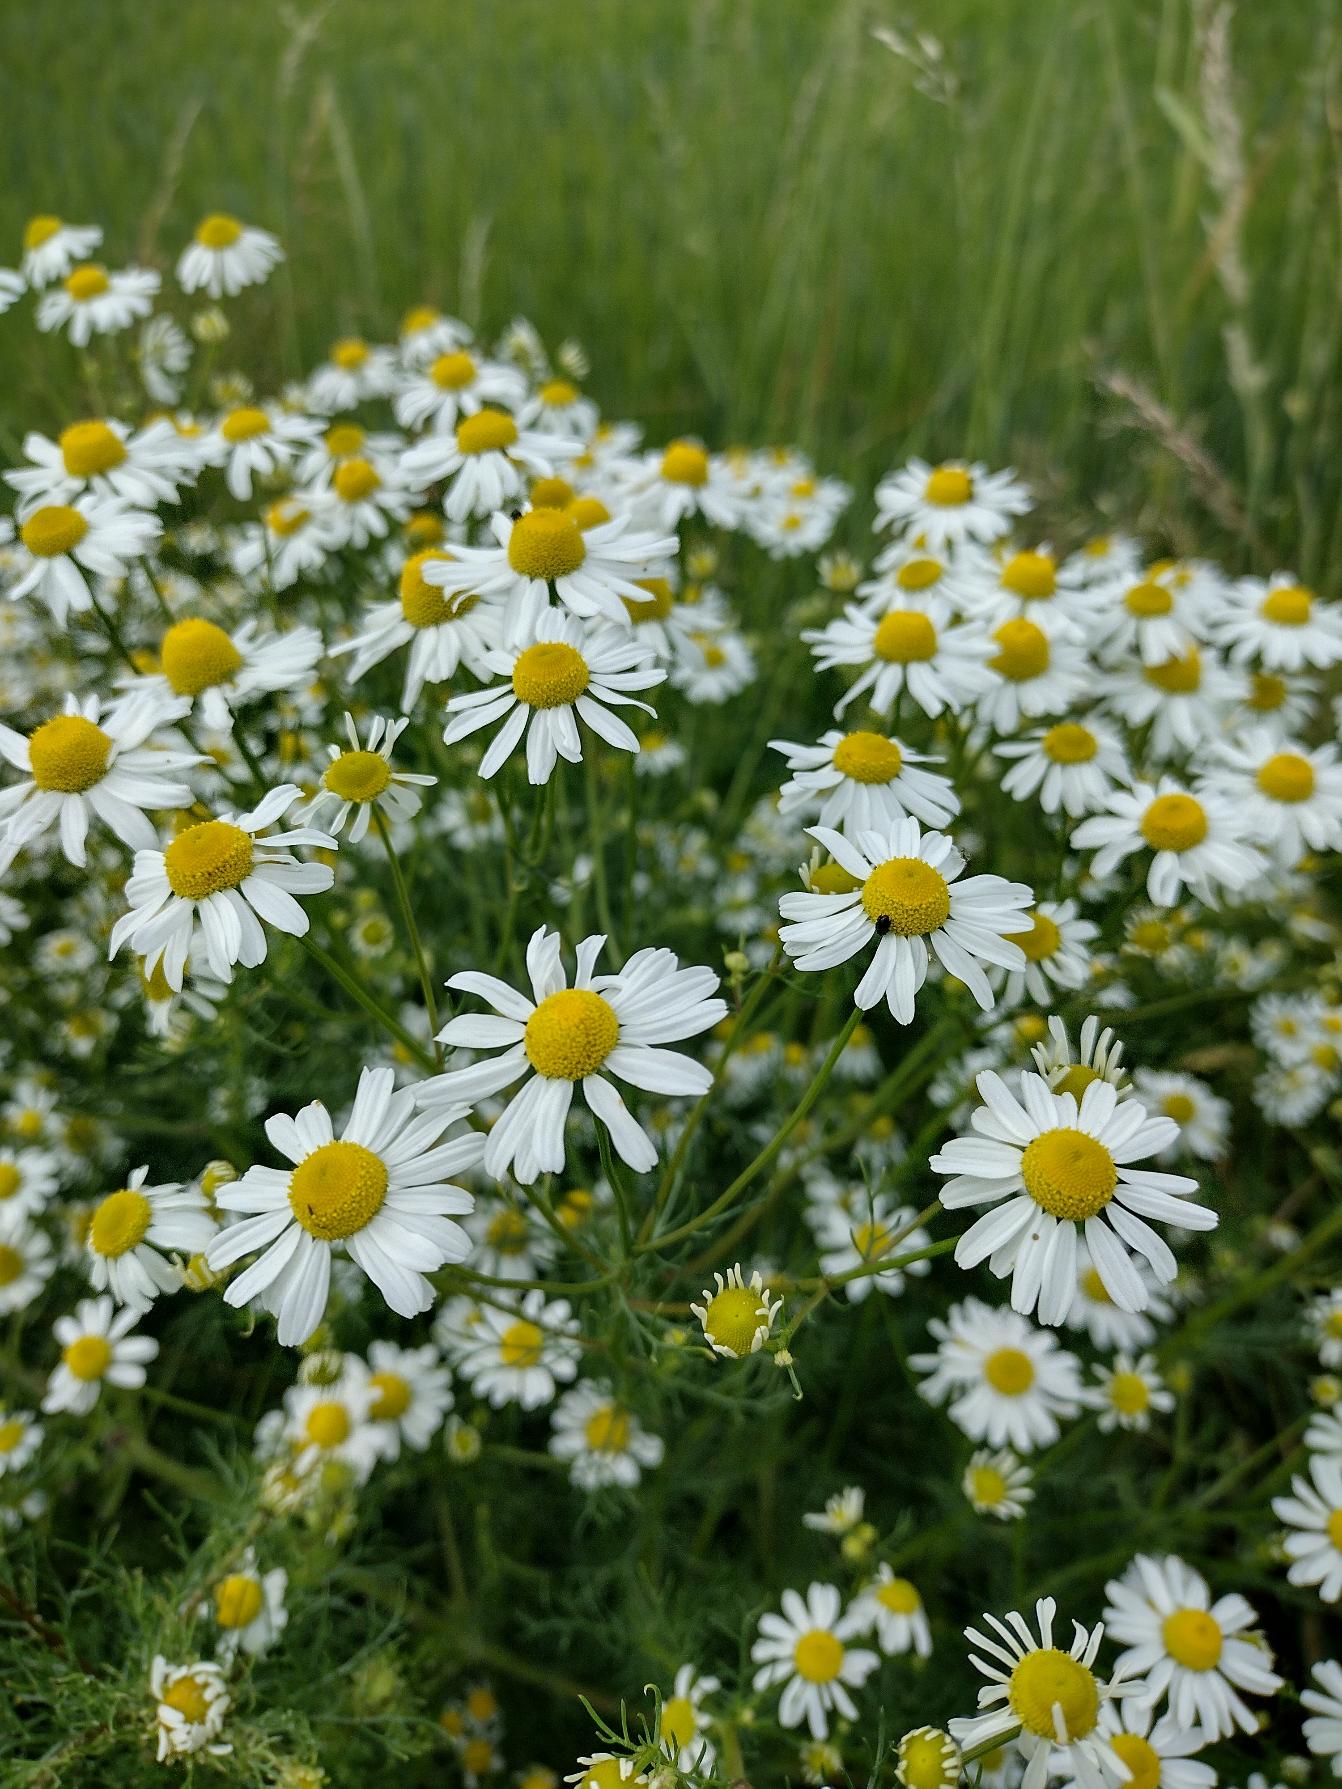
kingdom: Plantae
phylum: Tracheophyta
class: Magnoliopsida
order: Asterales
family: Asteraceae
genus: Matricaria
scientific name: Matricaria chamomilla
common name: Vellugtende kamille
